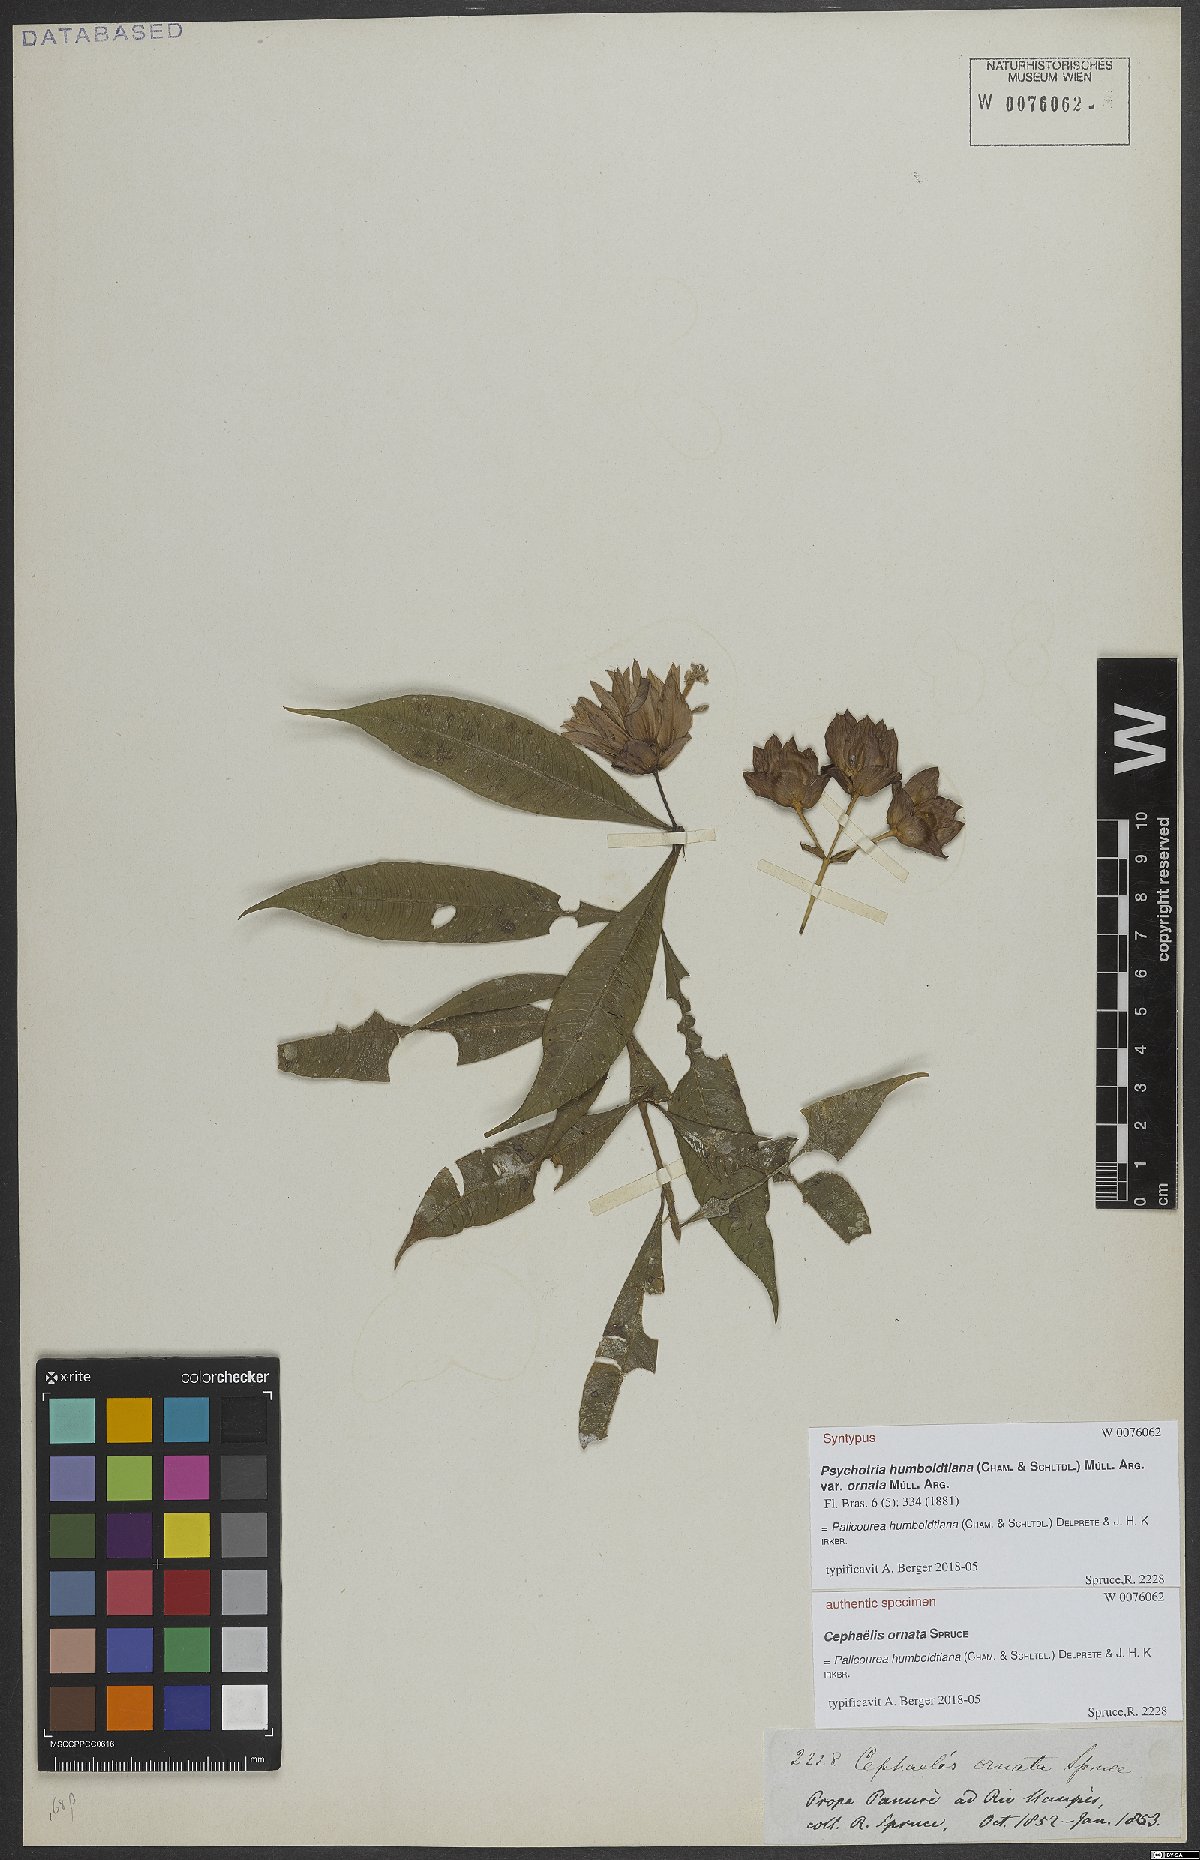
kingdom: Plantae
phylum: Tracheophyta
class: Magnoliopsida
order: Gentianales
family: Rubiaceae
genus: Palicourea
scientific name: Palicourea humboldtiana
